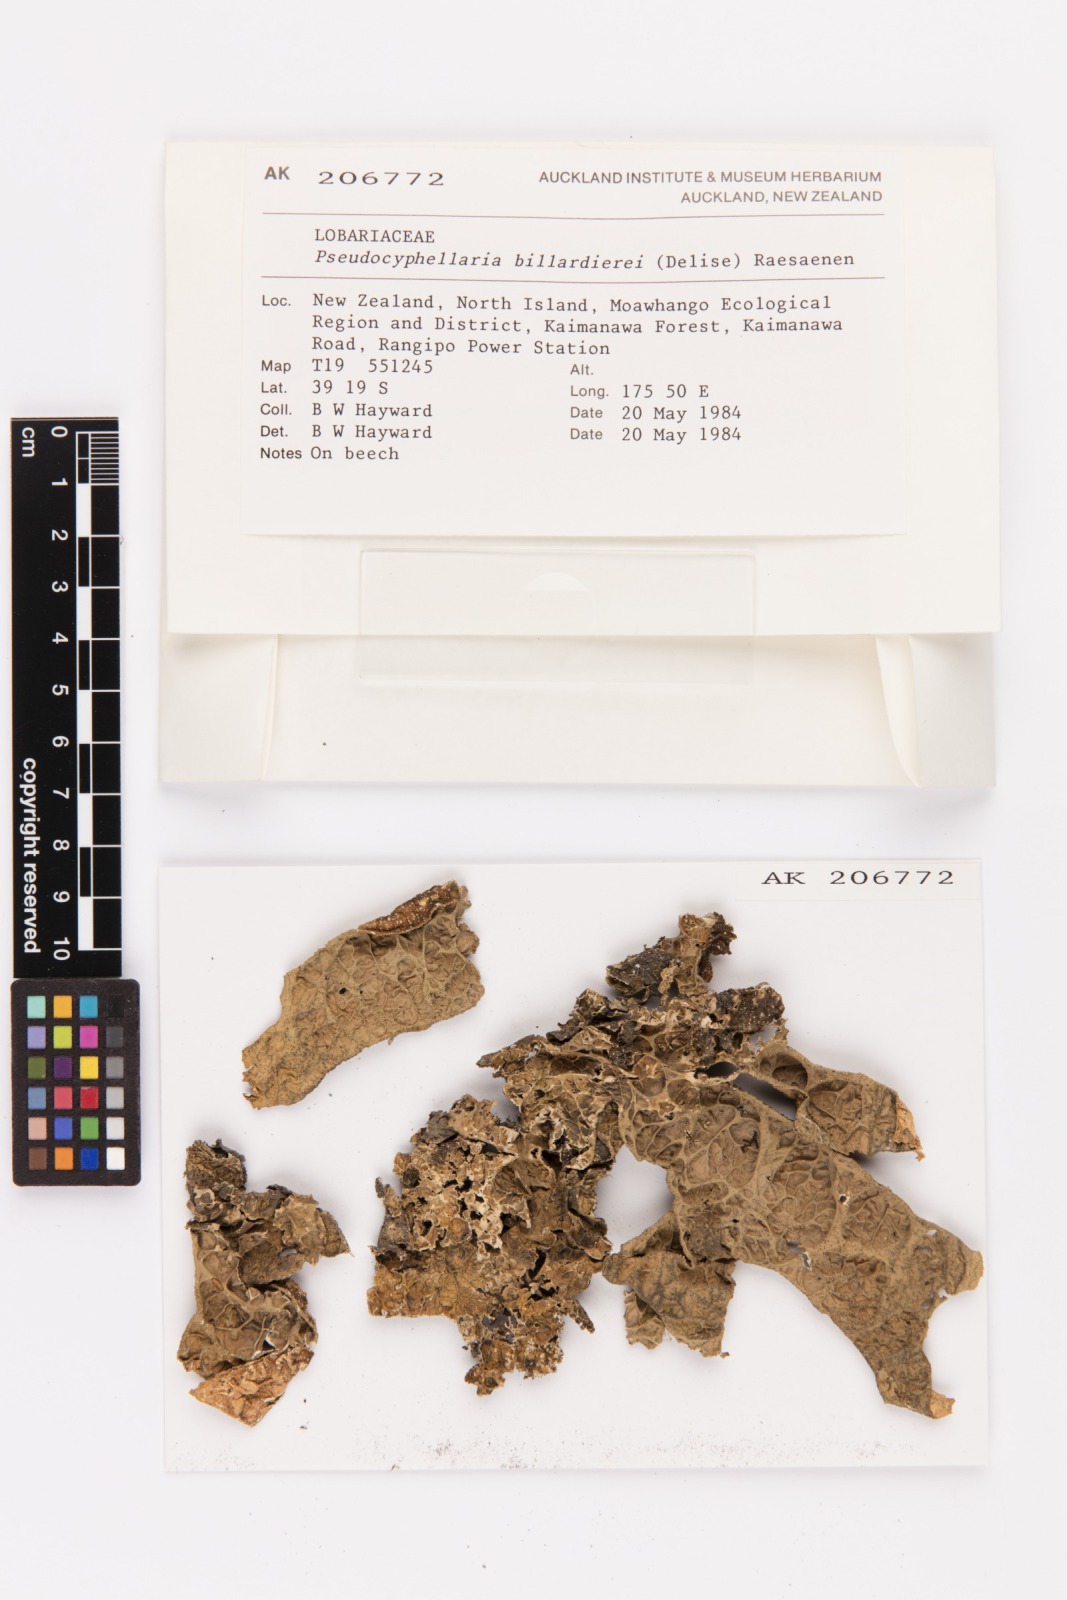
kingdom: Fungi
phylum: Ascomycota
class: Lecanoromycetes
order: Peltigerales
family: Lobariaceae
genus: Pseudocyphellaria
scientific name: Pseudocyphellaria billardierei
